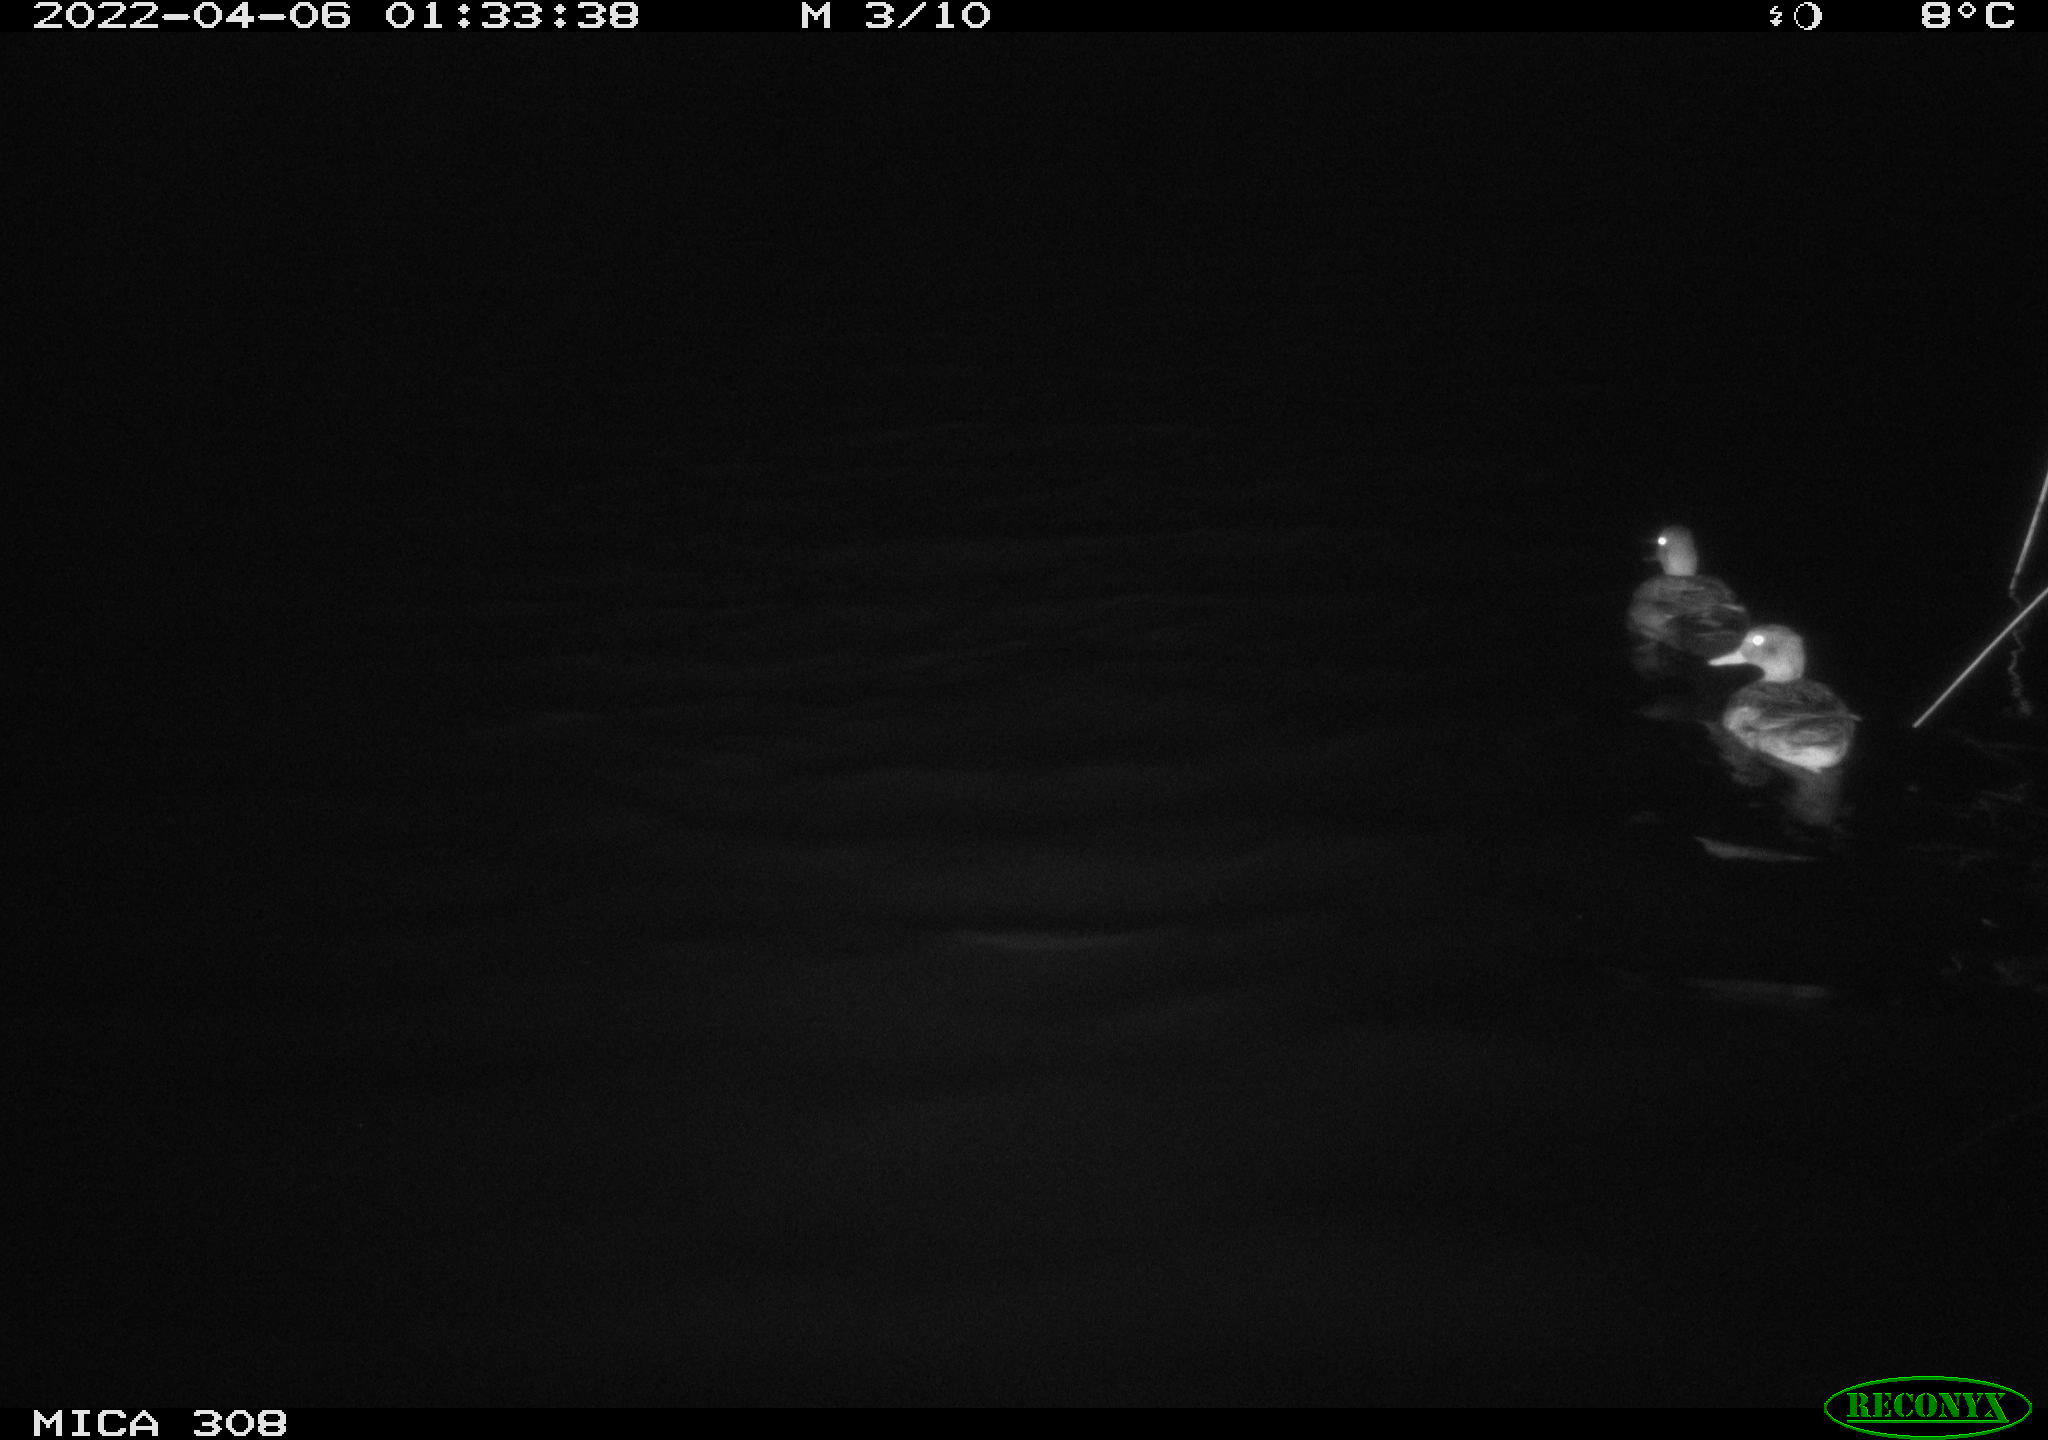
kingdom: Animalia
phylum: Chordata
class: Aves
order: Anseriformes
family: Anatidae
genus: Mareca
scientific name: Mareca strepera
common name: Gadwall
